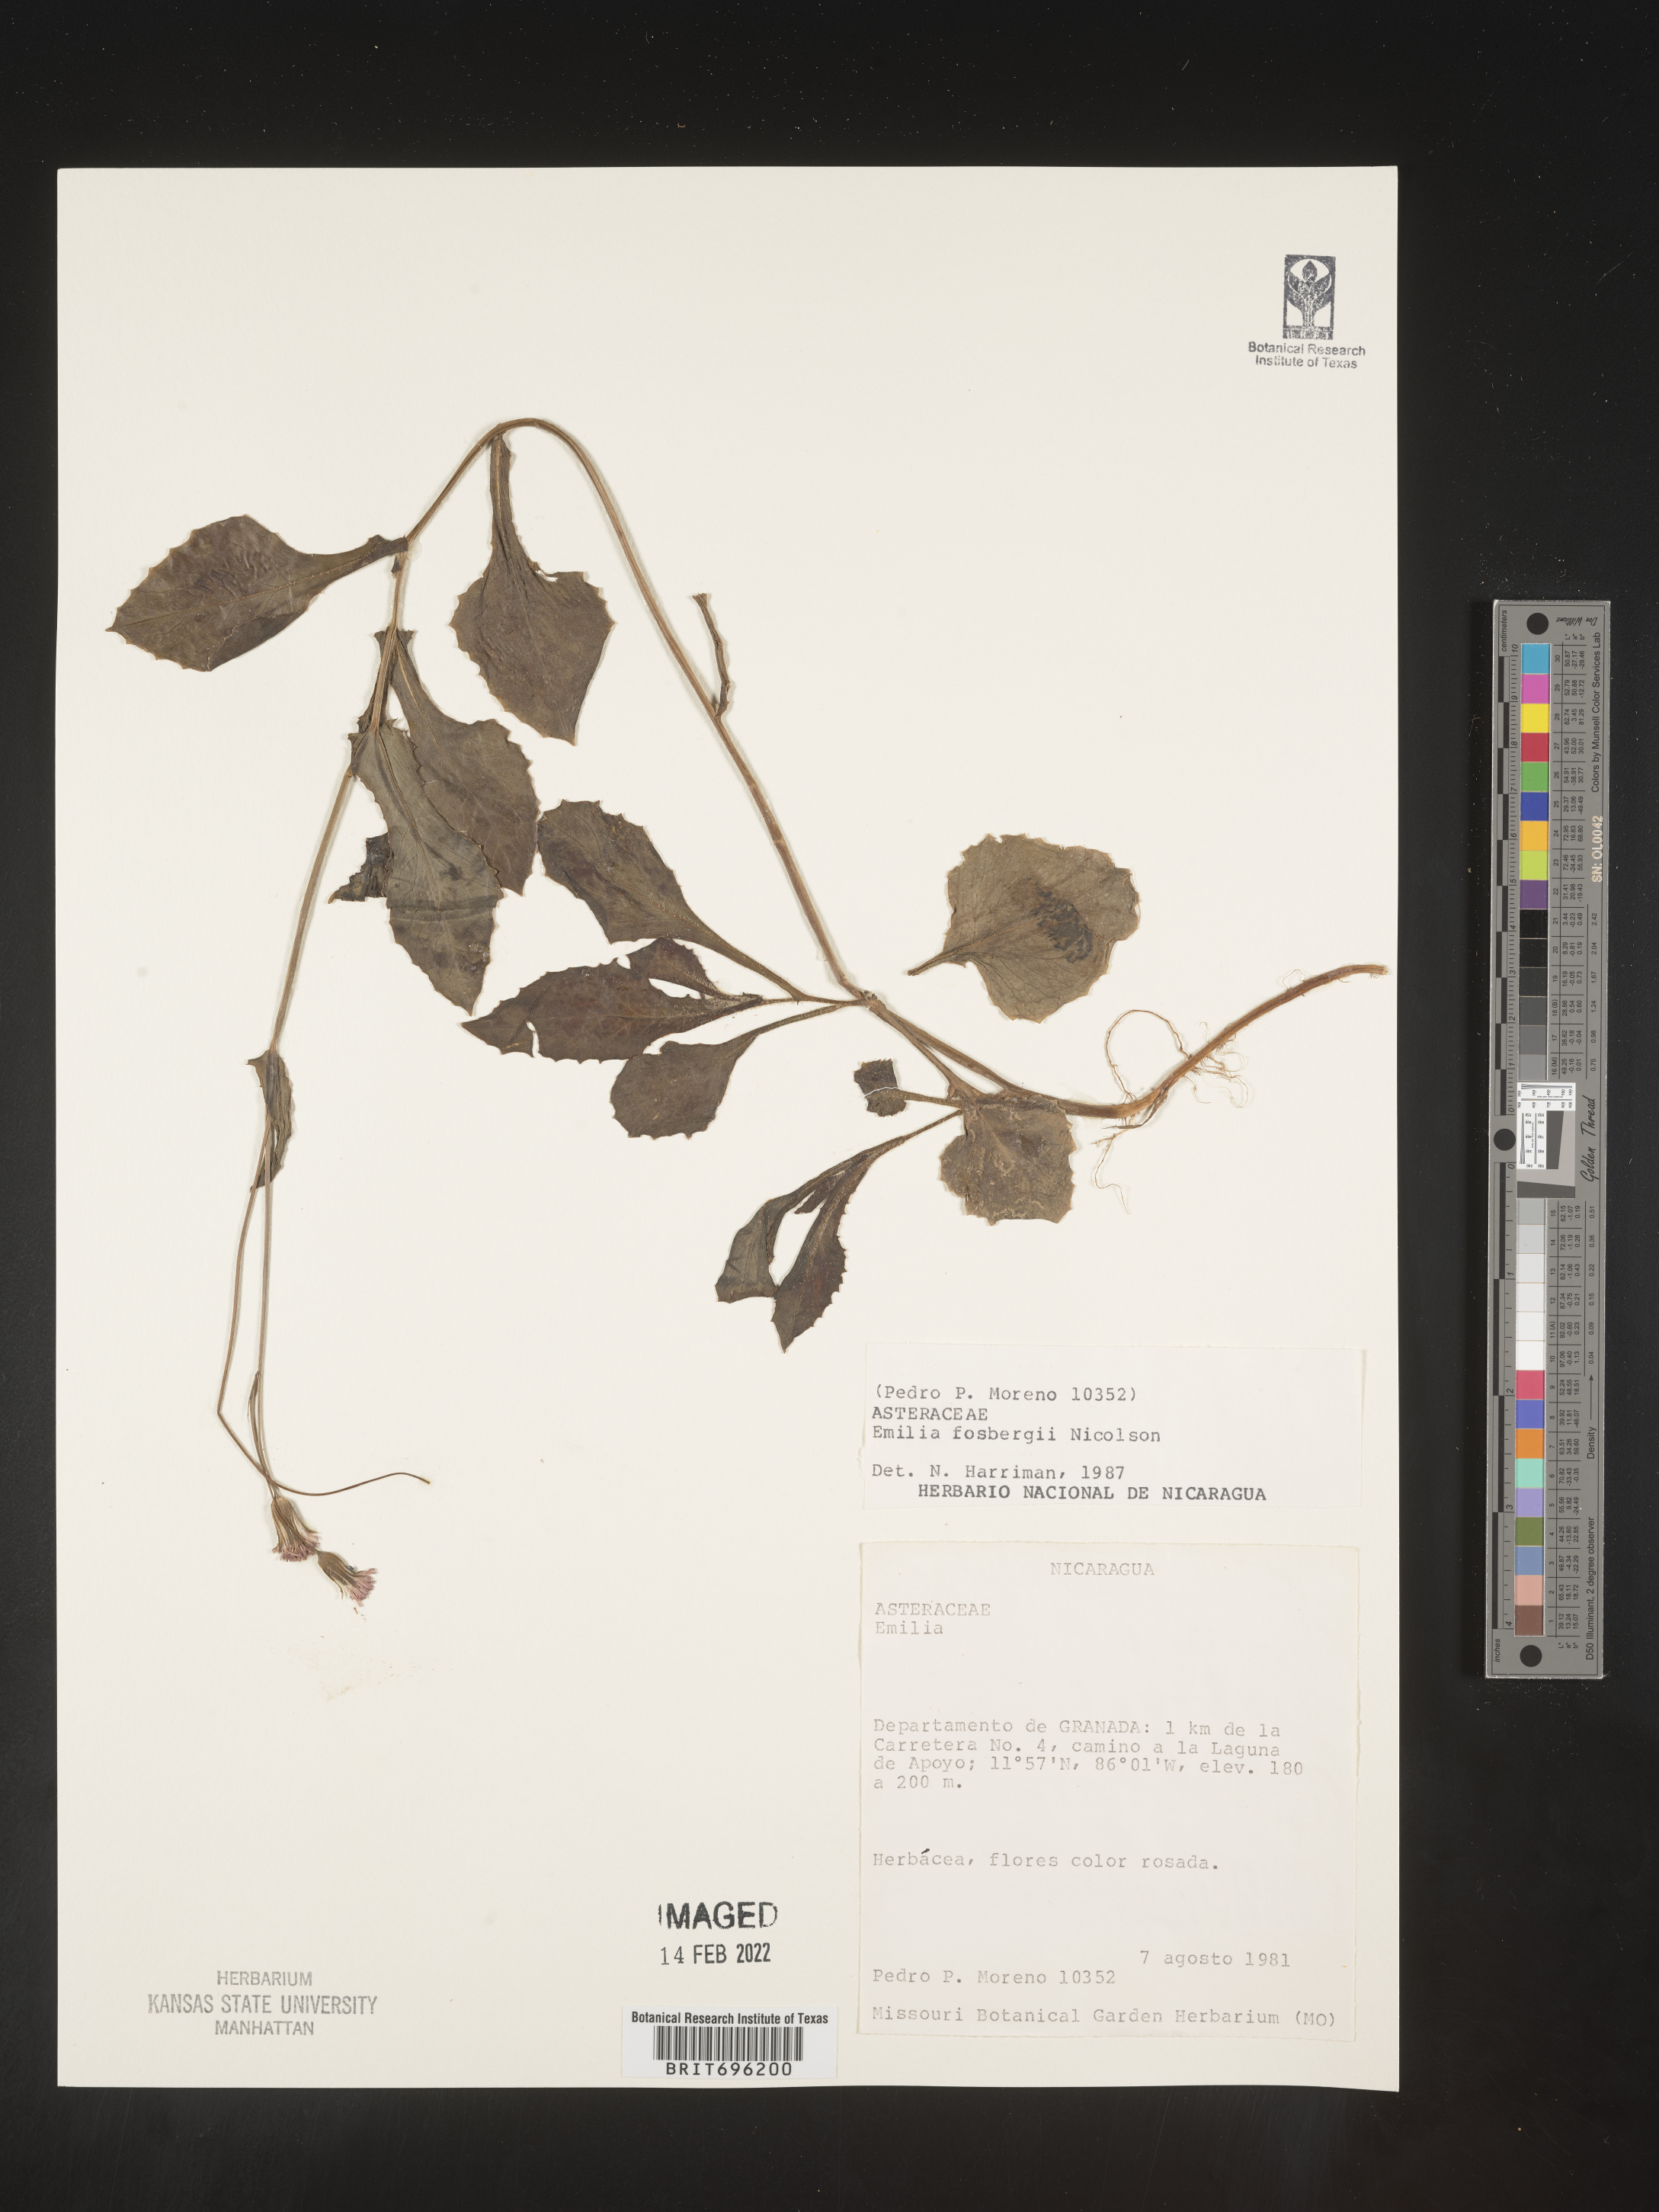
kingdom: Plantae
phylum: Tracheophyta
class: Magnoliopsida
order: Asterales
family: Asteraceae
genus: Emilia
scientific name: Emilia
